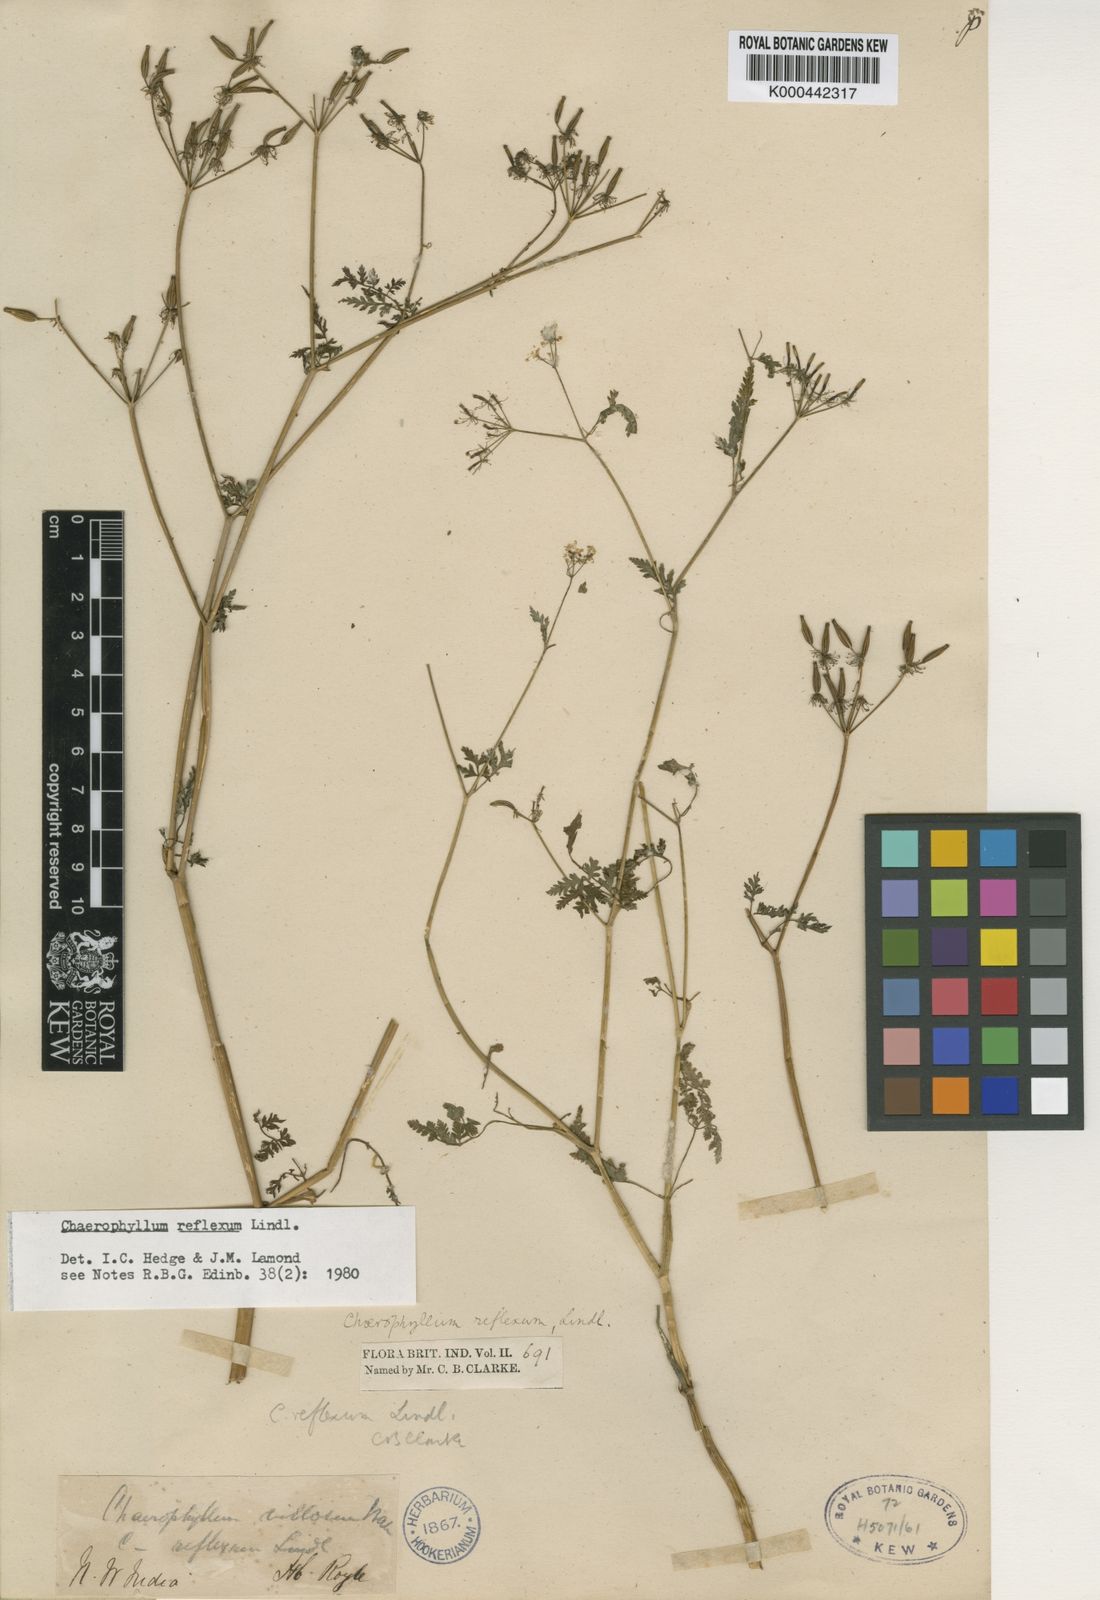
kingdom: Plantae
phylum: Tracheophyta
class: Magnoliopsida
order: Apiales
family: Apiaceae
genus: Chaerophyllum
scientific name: Chaerophyllum reflexum
